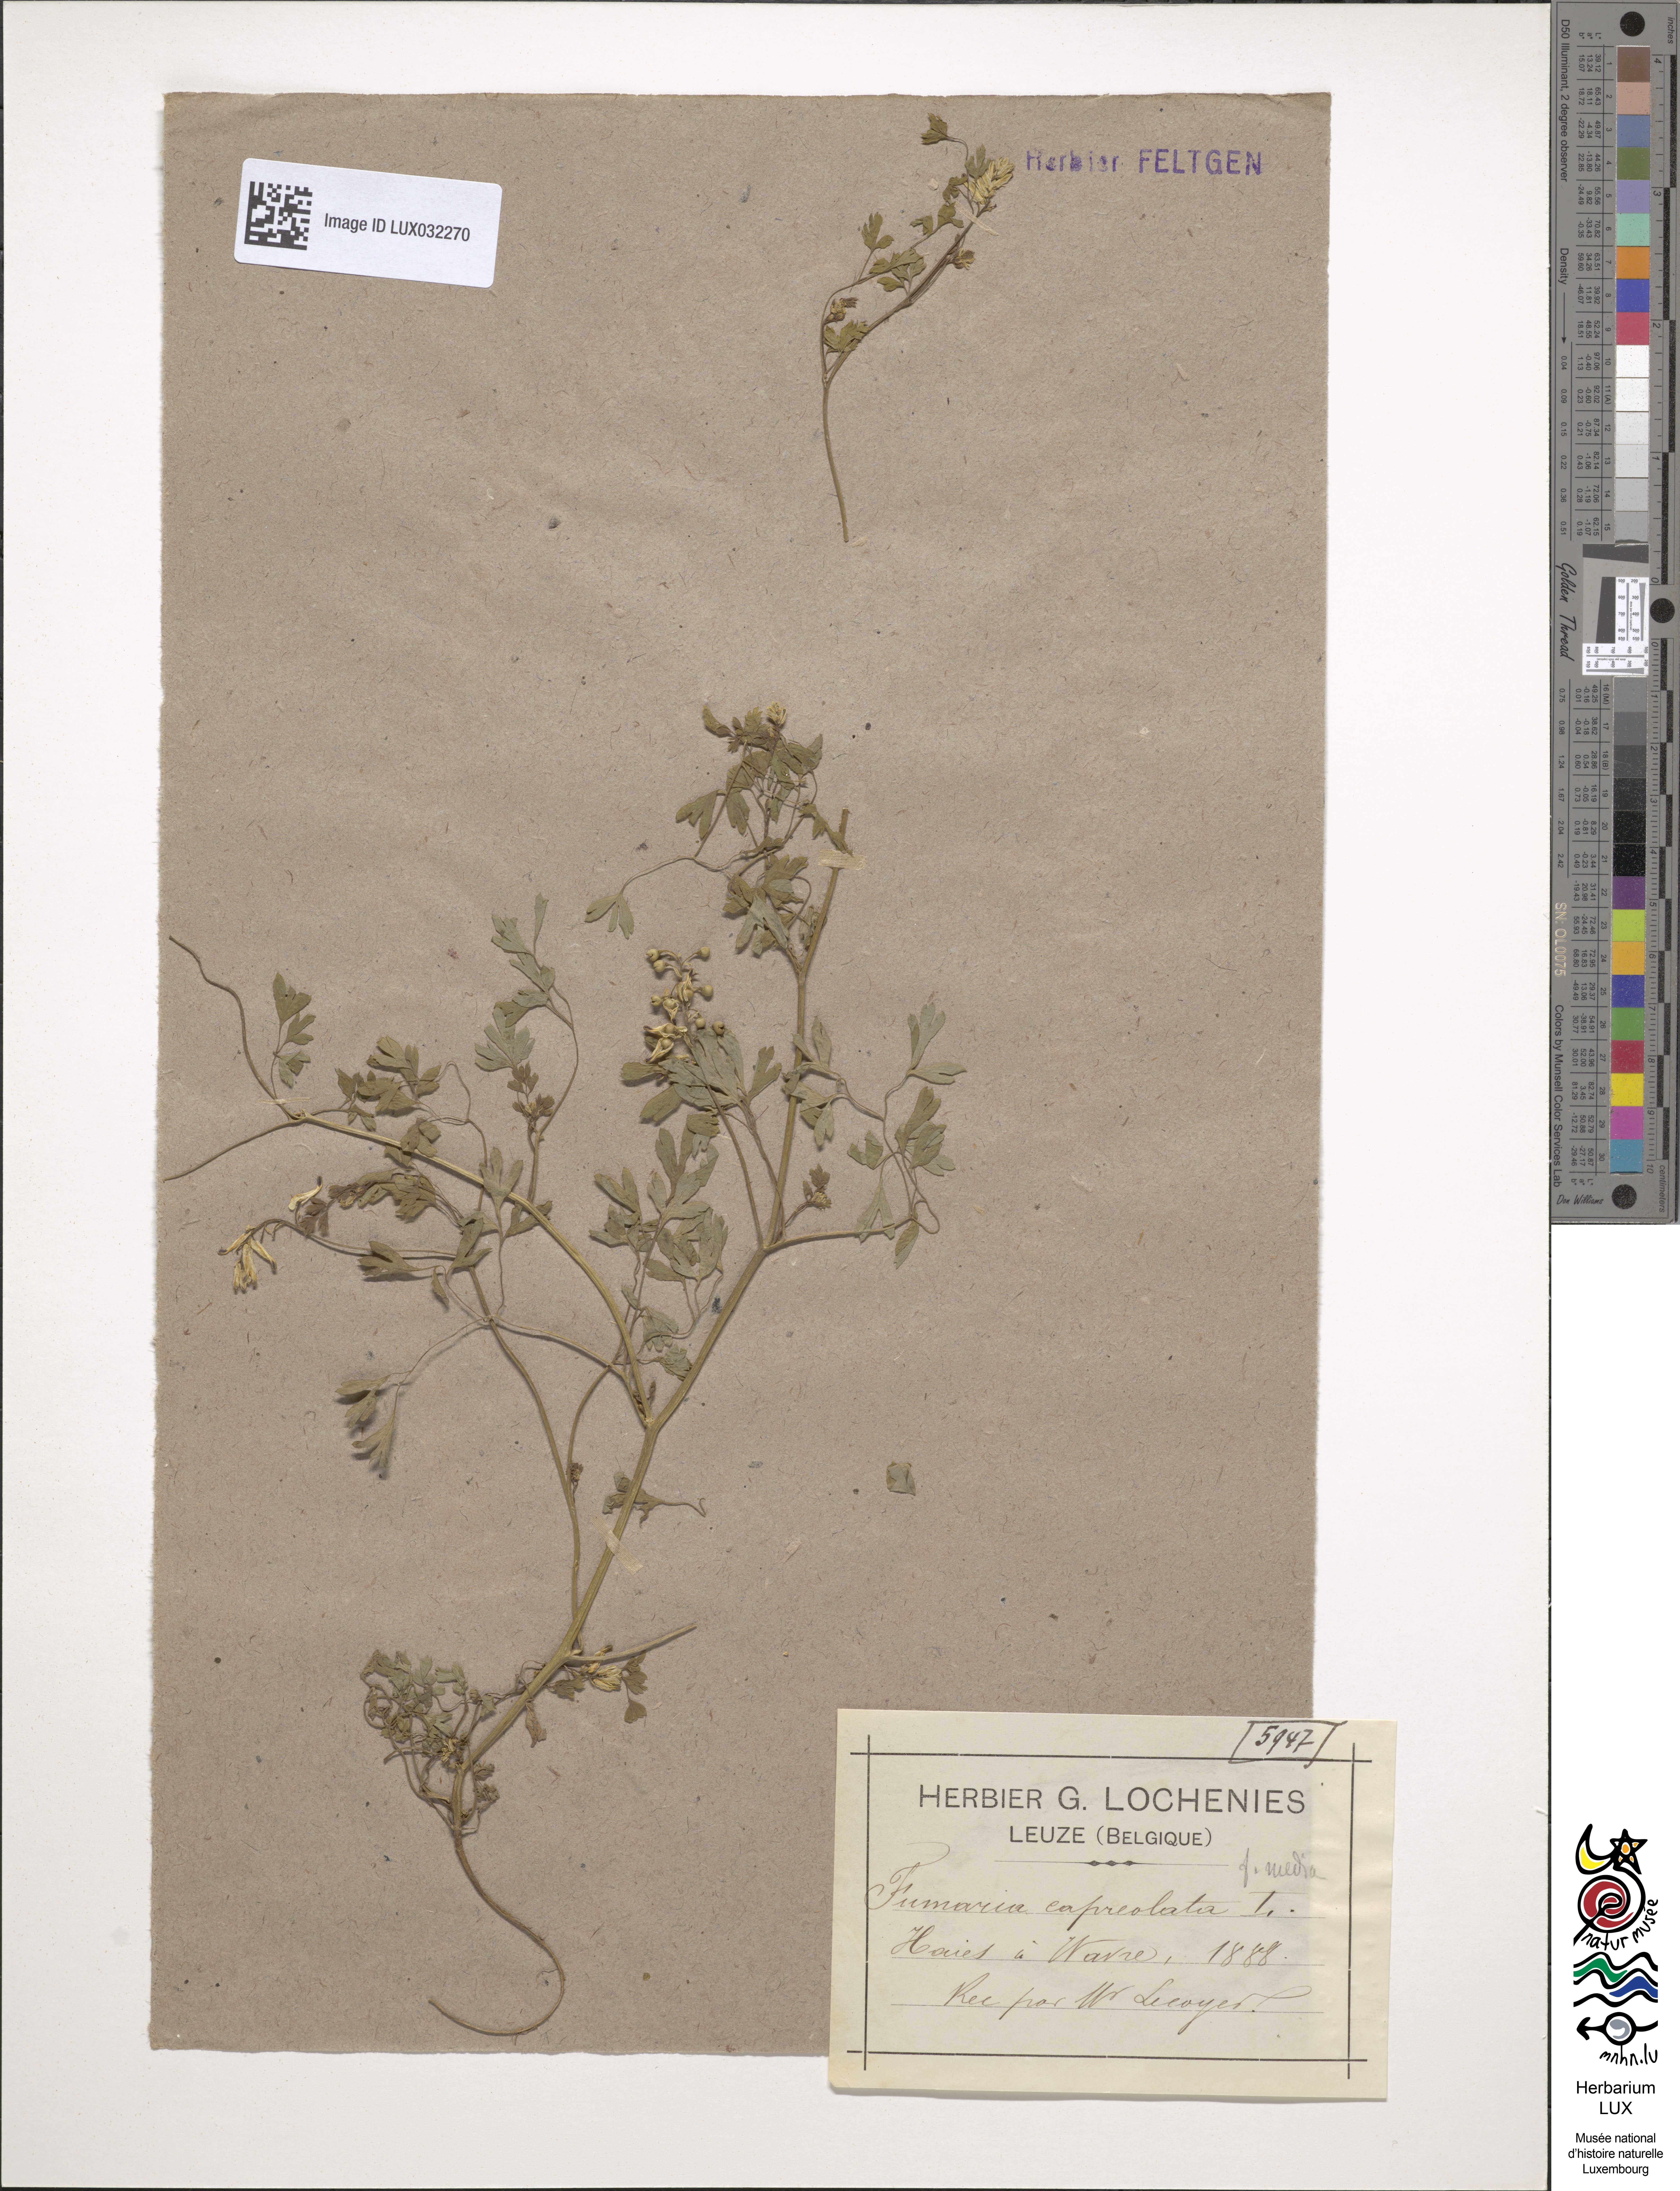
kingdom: Plantae
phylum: Tracheophyta
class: Magnoliopsida
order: Ranunculales
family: Papaveraceae
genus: Fumaria
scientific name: Fumaria capreolata
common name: White ramping-fumitory
